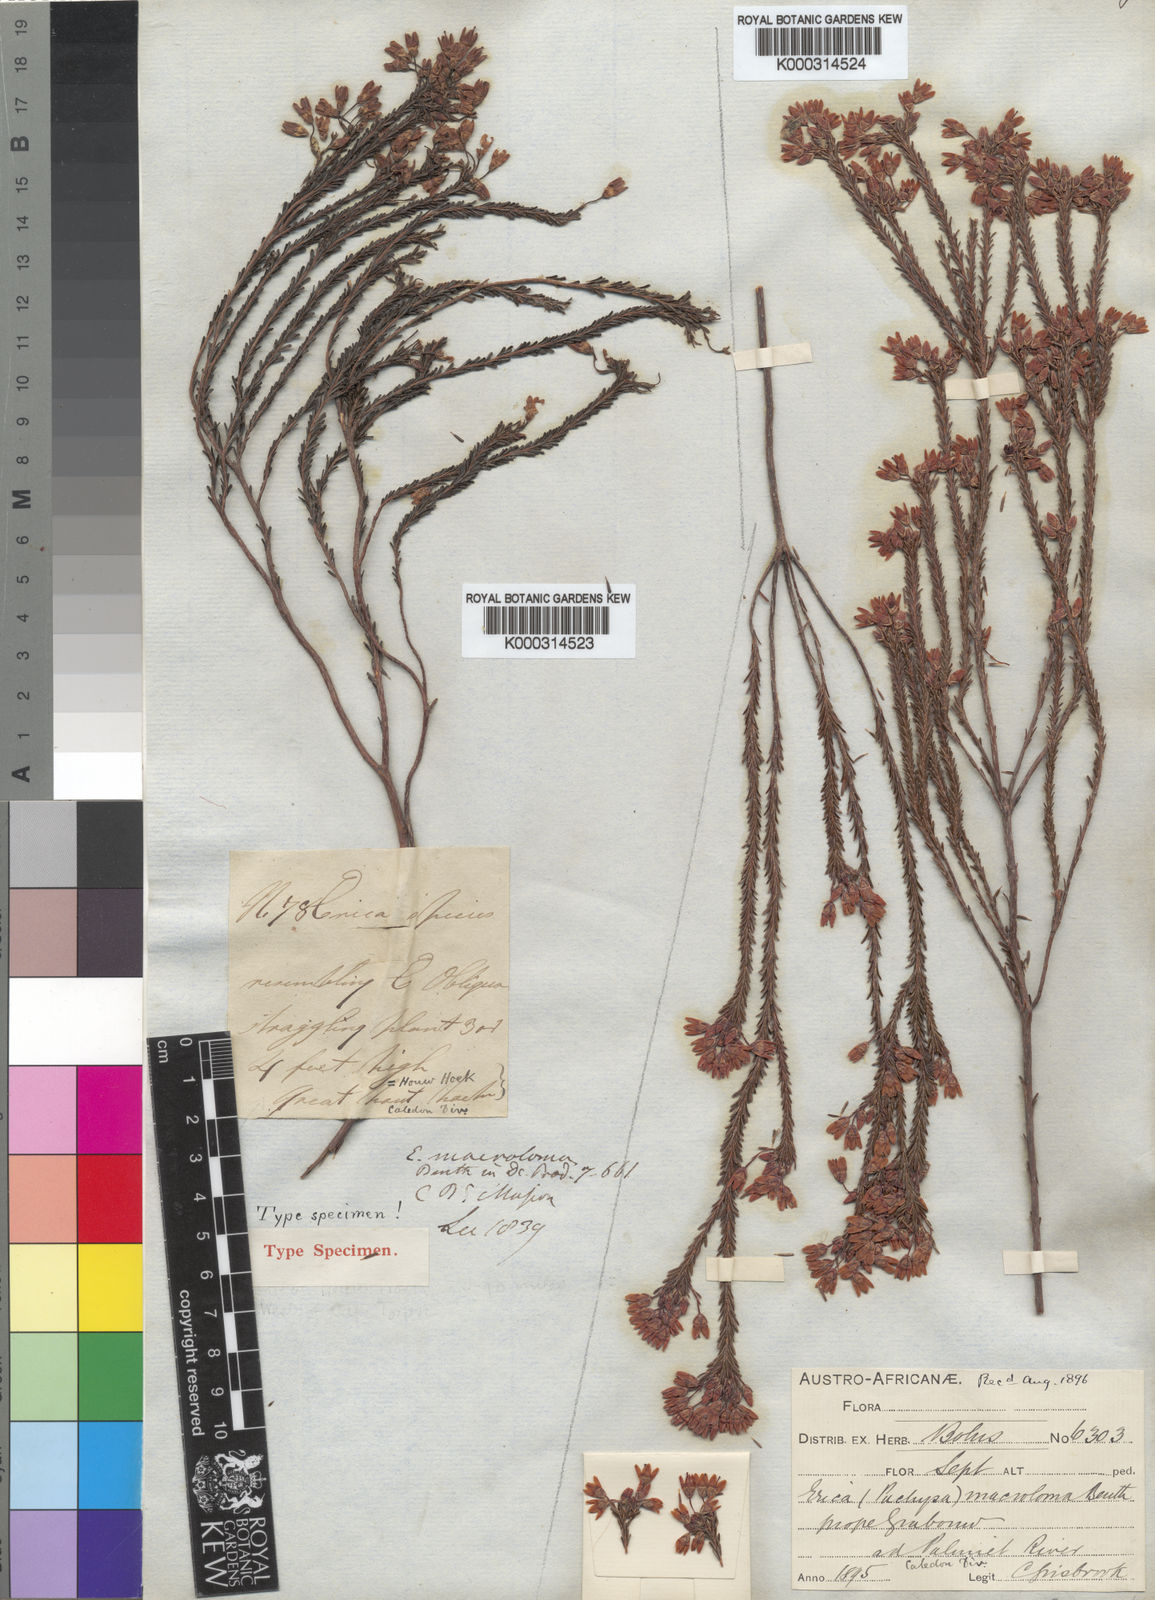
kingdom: Plantae
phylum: Tracheophyta
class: Magnoliopsida
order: Ericales
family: Ericaceae
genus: Erica
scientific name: Erica macroloma
